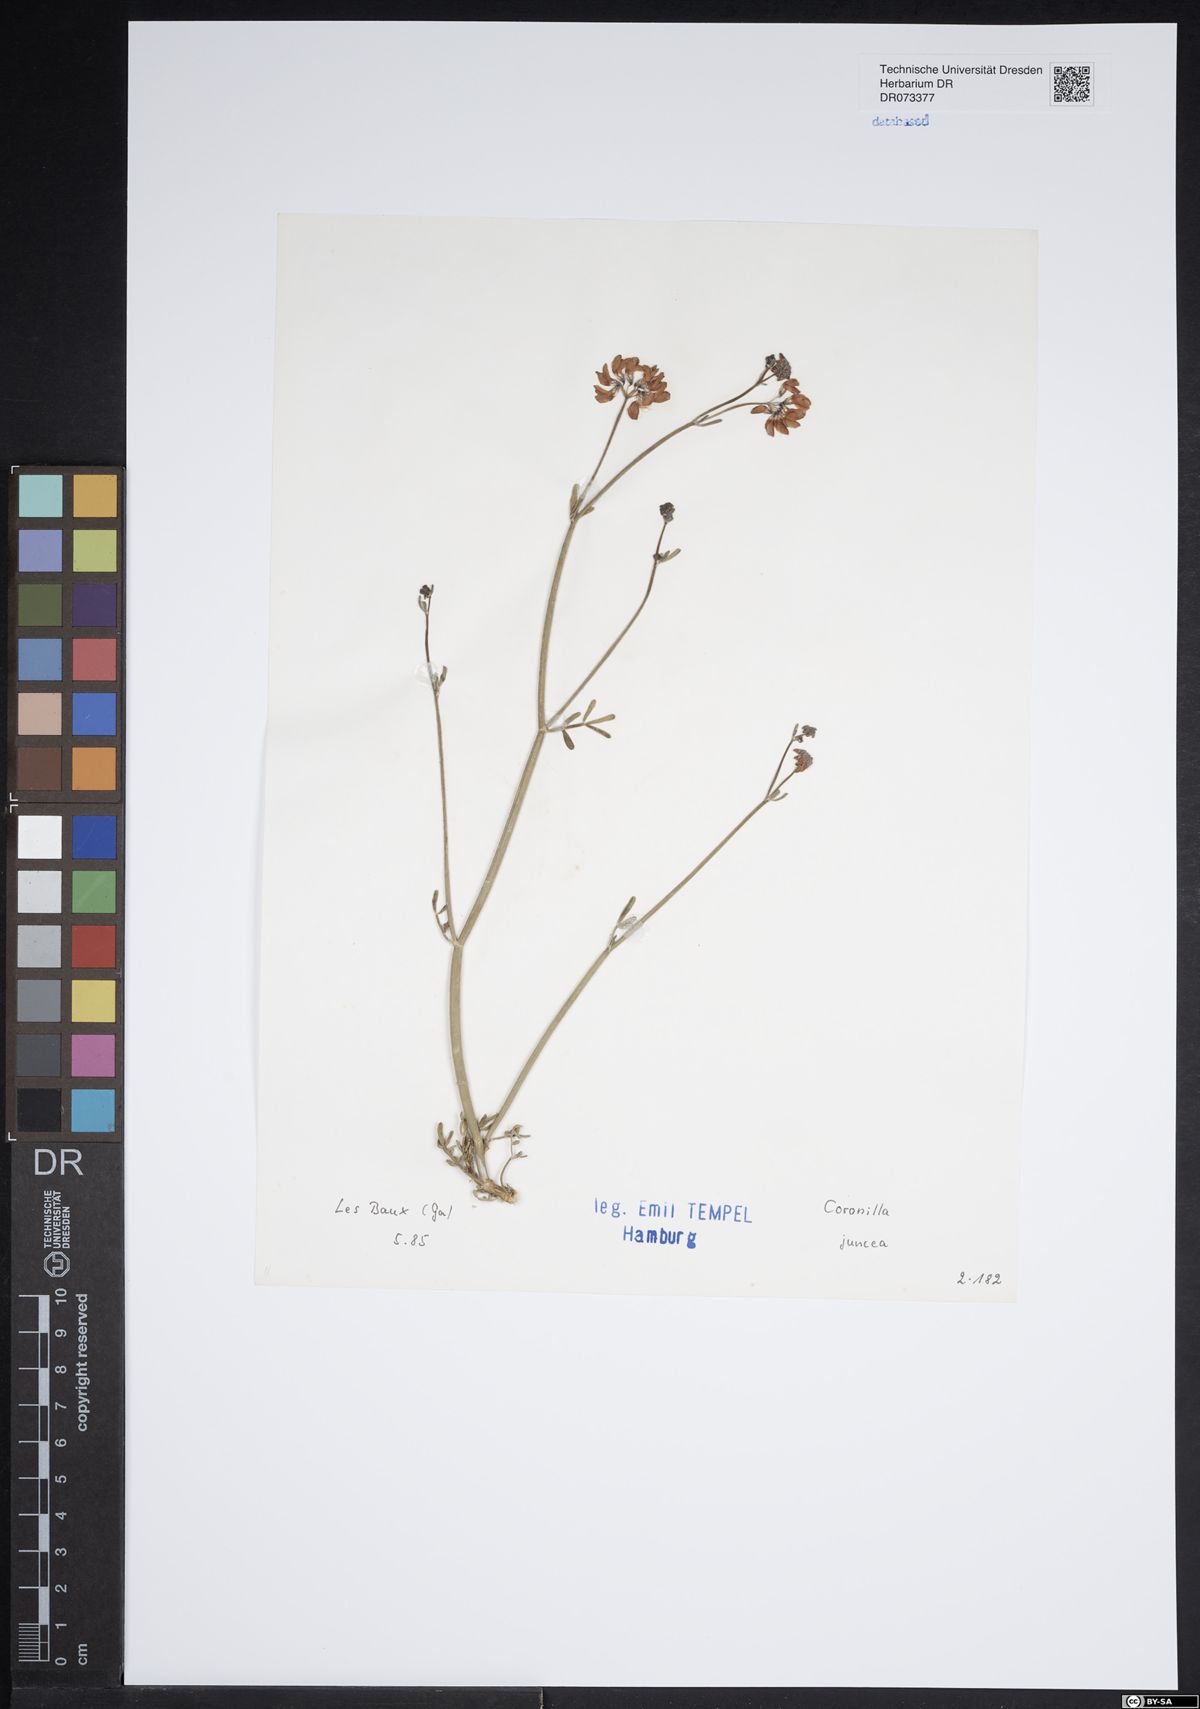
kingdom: Plantae
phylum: Tracheophyta
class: Magnoliopsida
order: Fabales
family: Fabaceae
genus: Coronilla
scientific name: Coronilla juncea
